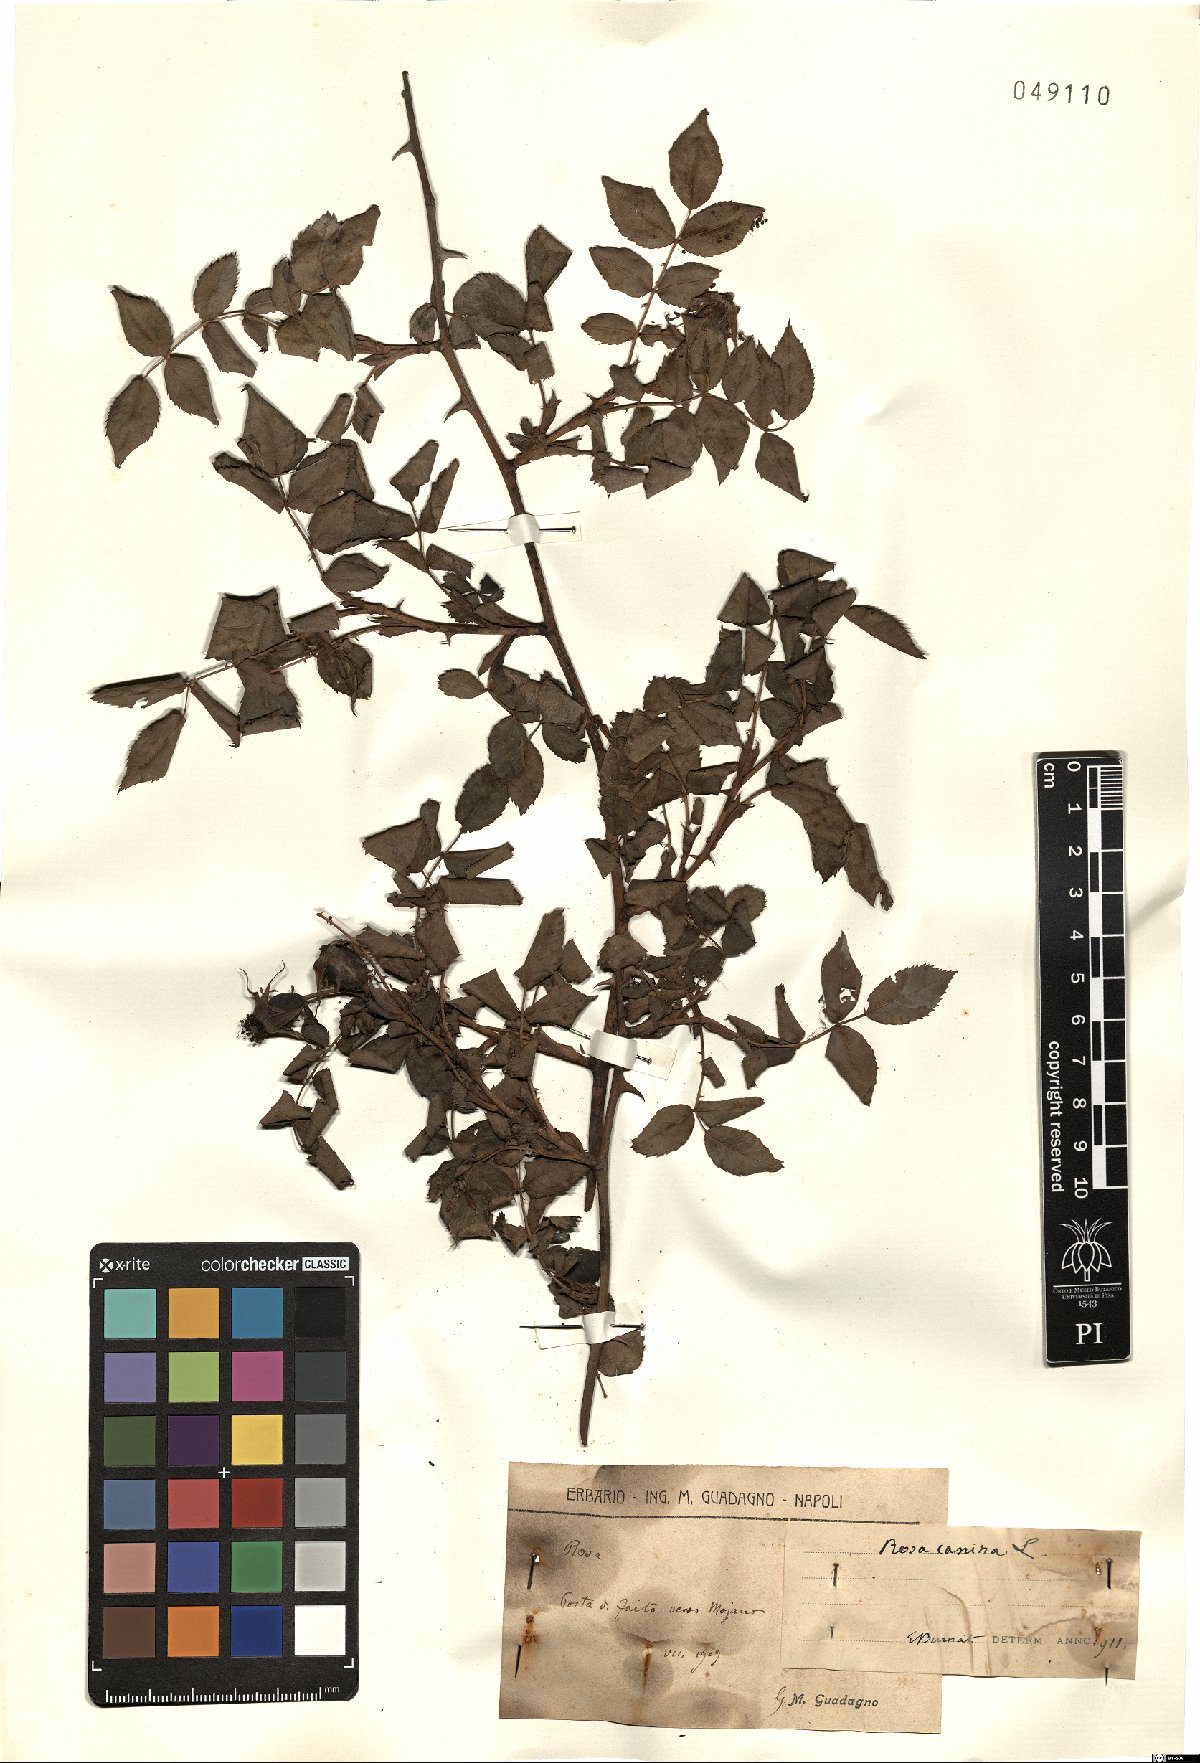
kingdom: Plantae
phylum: Tracheophyta
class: Magnoliopsida
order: Rosales
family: Rosaceae
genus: Rosa
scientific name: Rosa canina
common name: Dog rose
